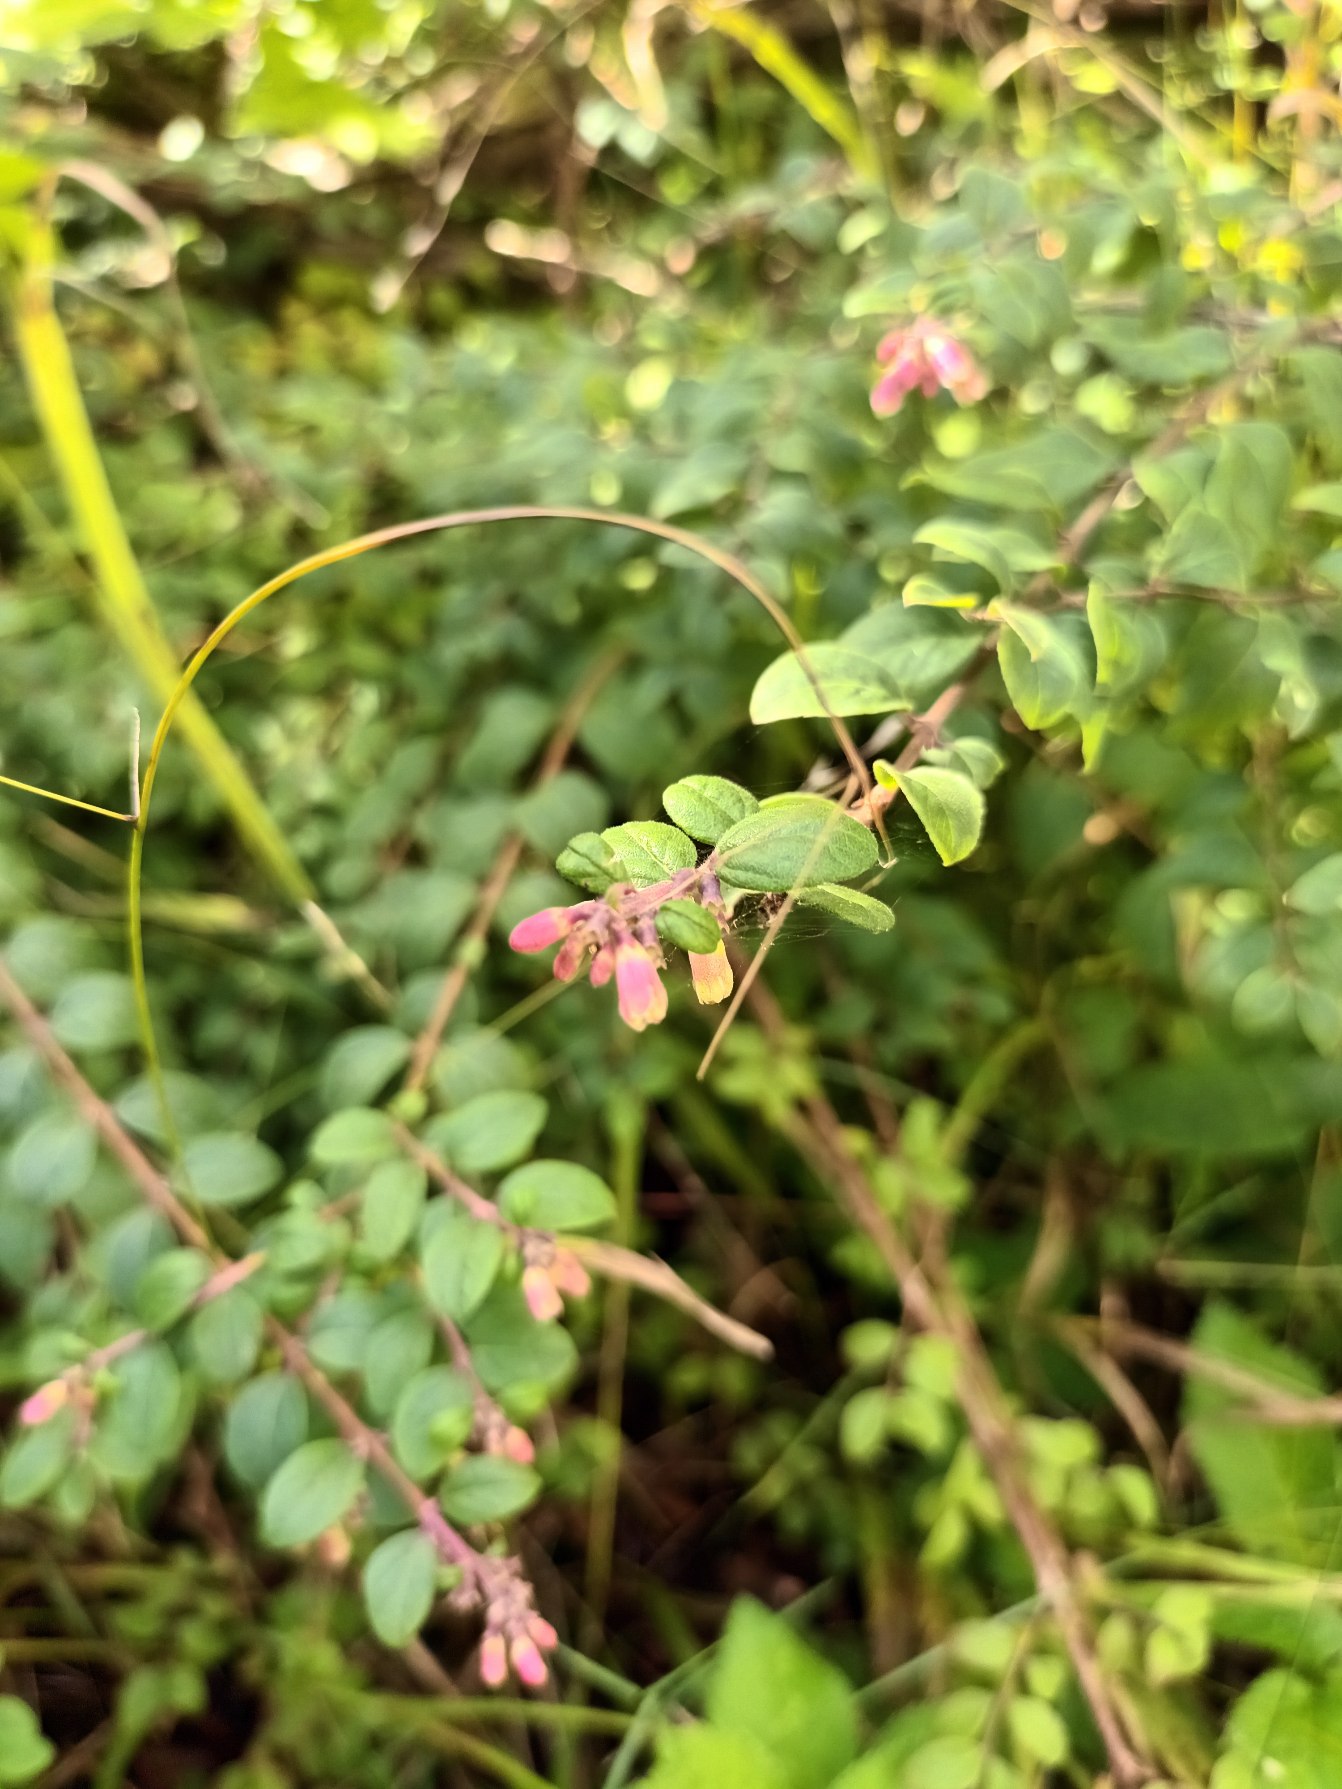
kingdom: Plantae
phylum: Tracheophyta
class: Magnoliopsida
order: Dipsacales
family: Caprifoliaceae
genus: Symphoricarpos
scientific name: Symphoricarpos chenaultii
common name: Rød snebær
